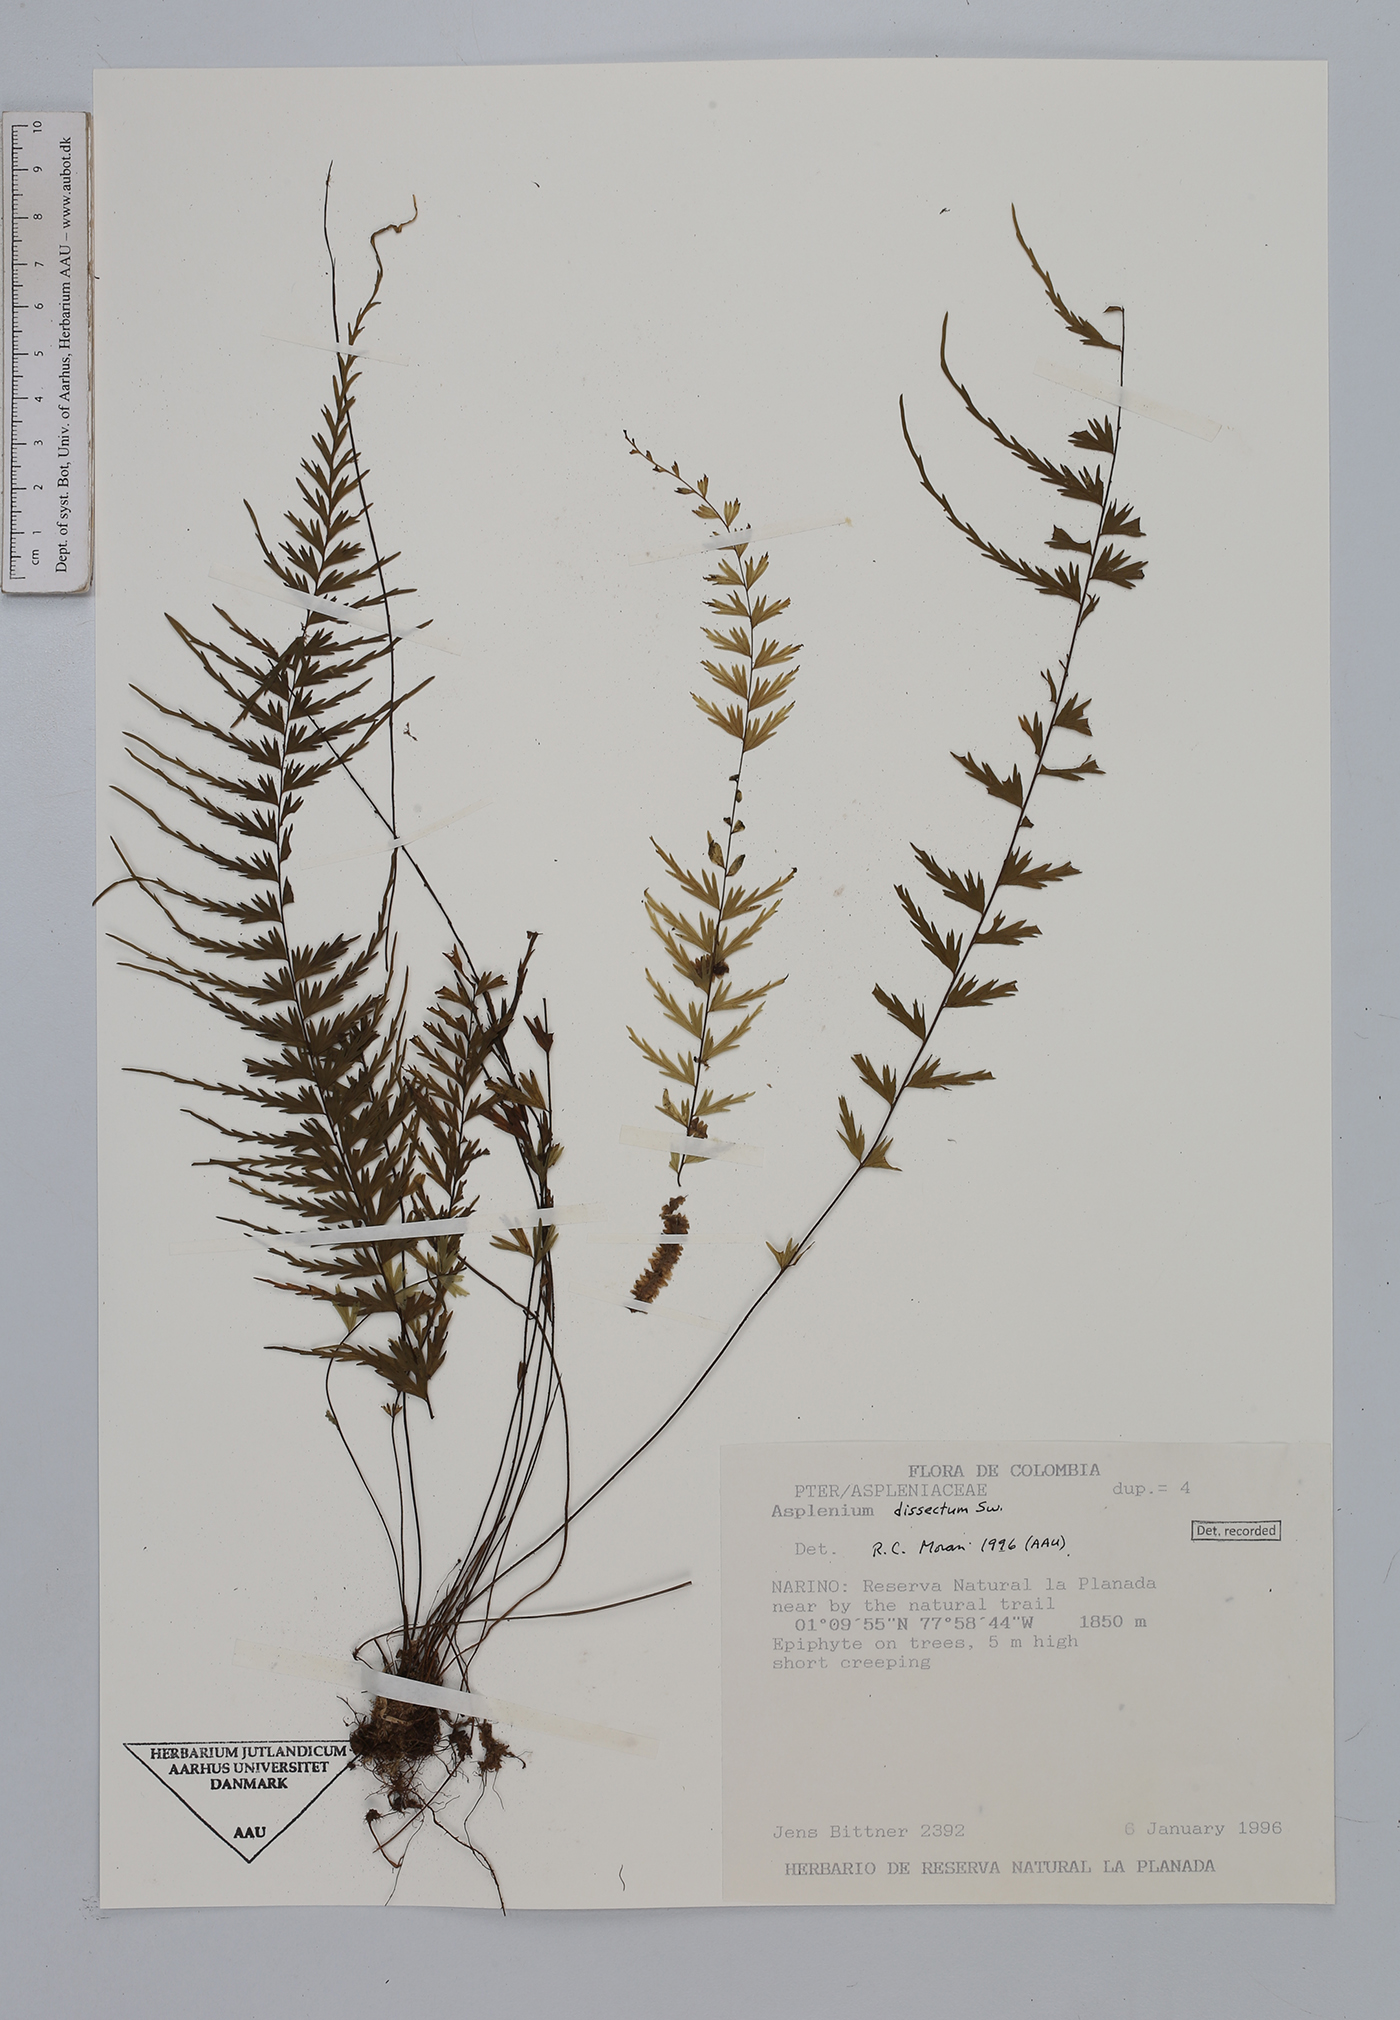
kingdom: Plantae
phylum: Tracheophyta
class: Polypodiopsida
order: Polypodiales
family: Aspleniaceae
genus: Asplenium
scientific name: Asplenium dissectum
